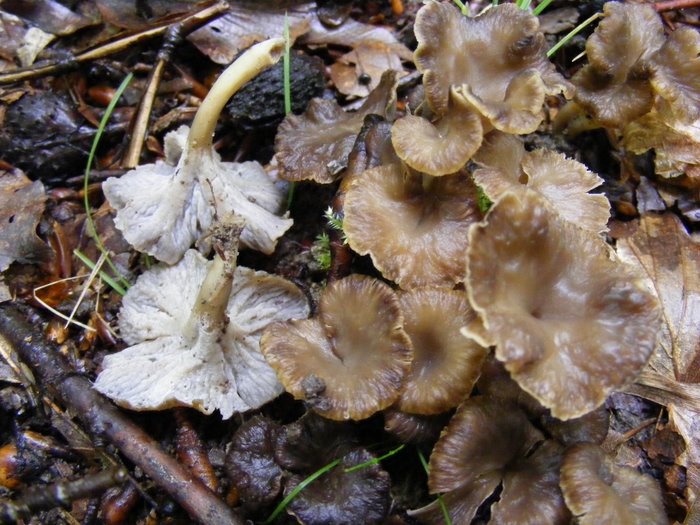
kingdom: Fungi
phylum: Basidiomycota
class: Agaricomycetes
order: Cantharellales
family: Hydnaceae
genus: Craterellus
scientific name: Craterellus undulatus
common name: liden kantarel
